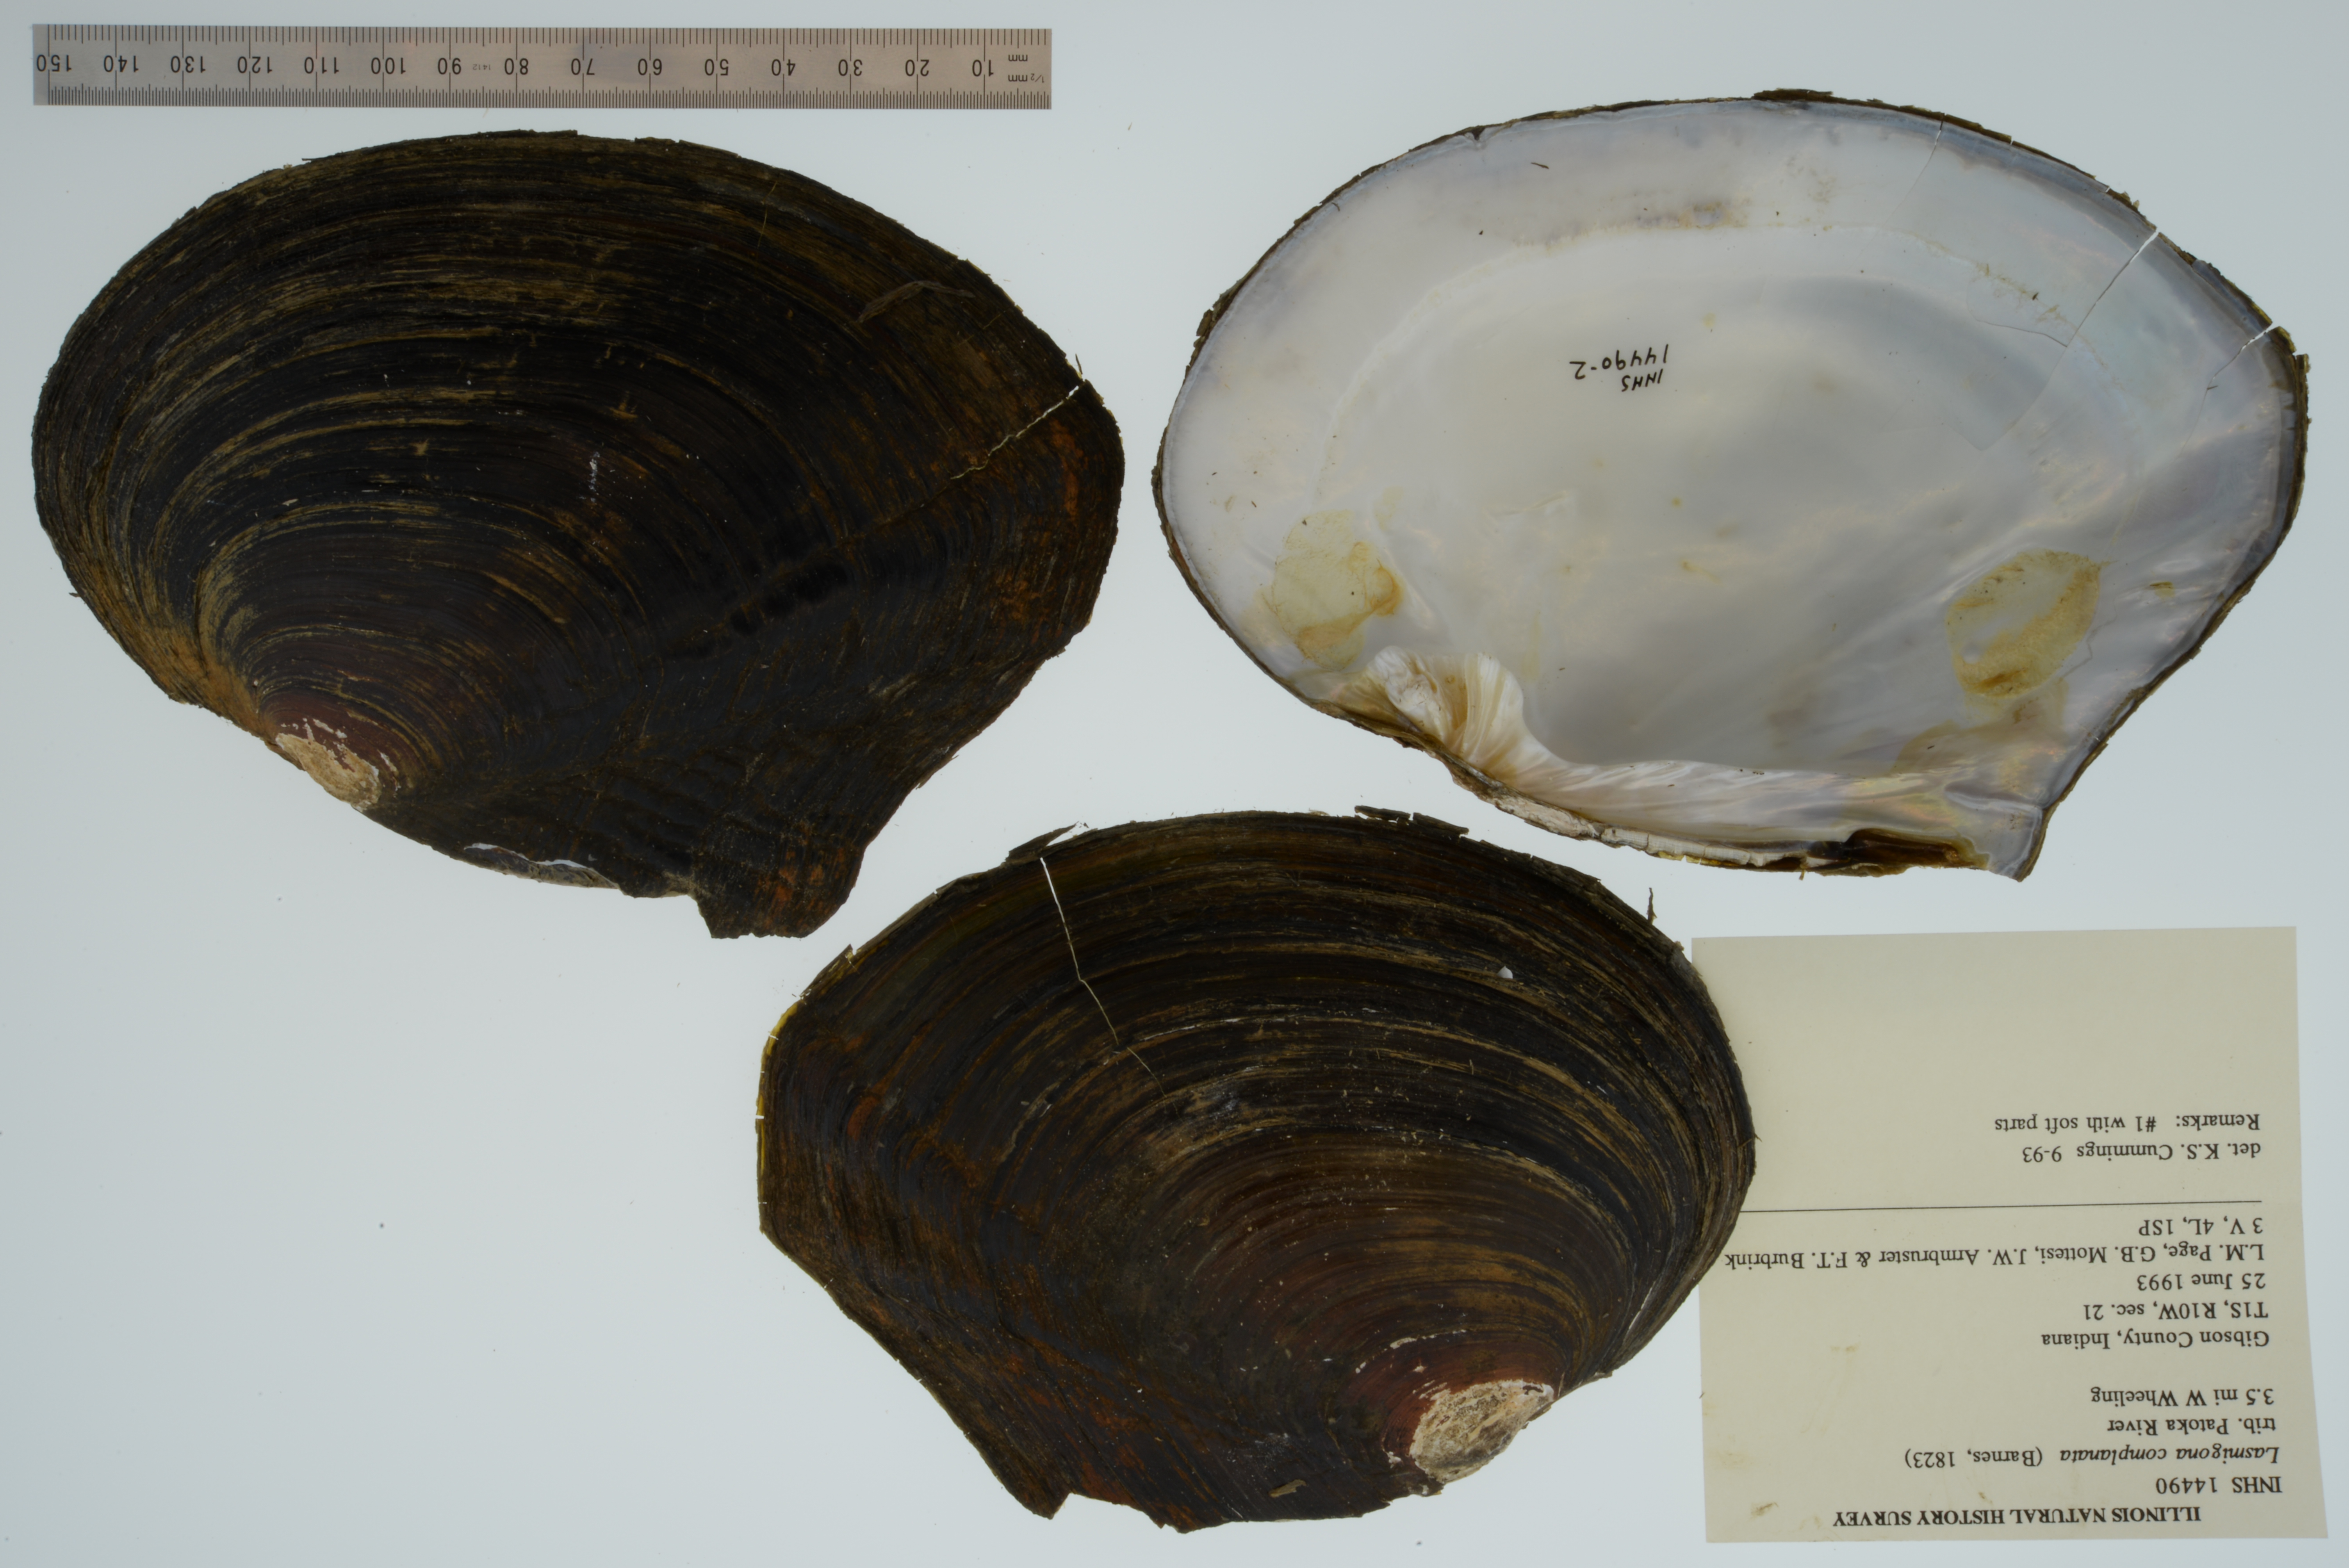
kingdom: Animalia
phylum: Mollusca
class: Bivalvia
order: Unionida
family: Unionidae
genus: Lasmigona
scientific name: Lasmigona complanata
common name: White heelsplitter
